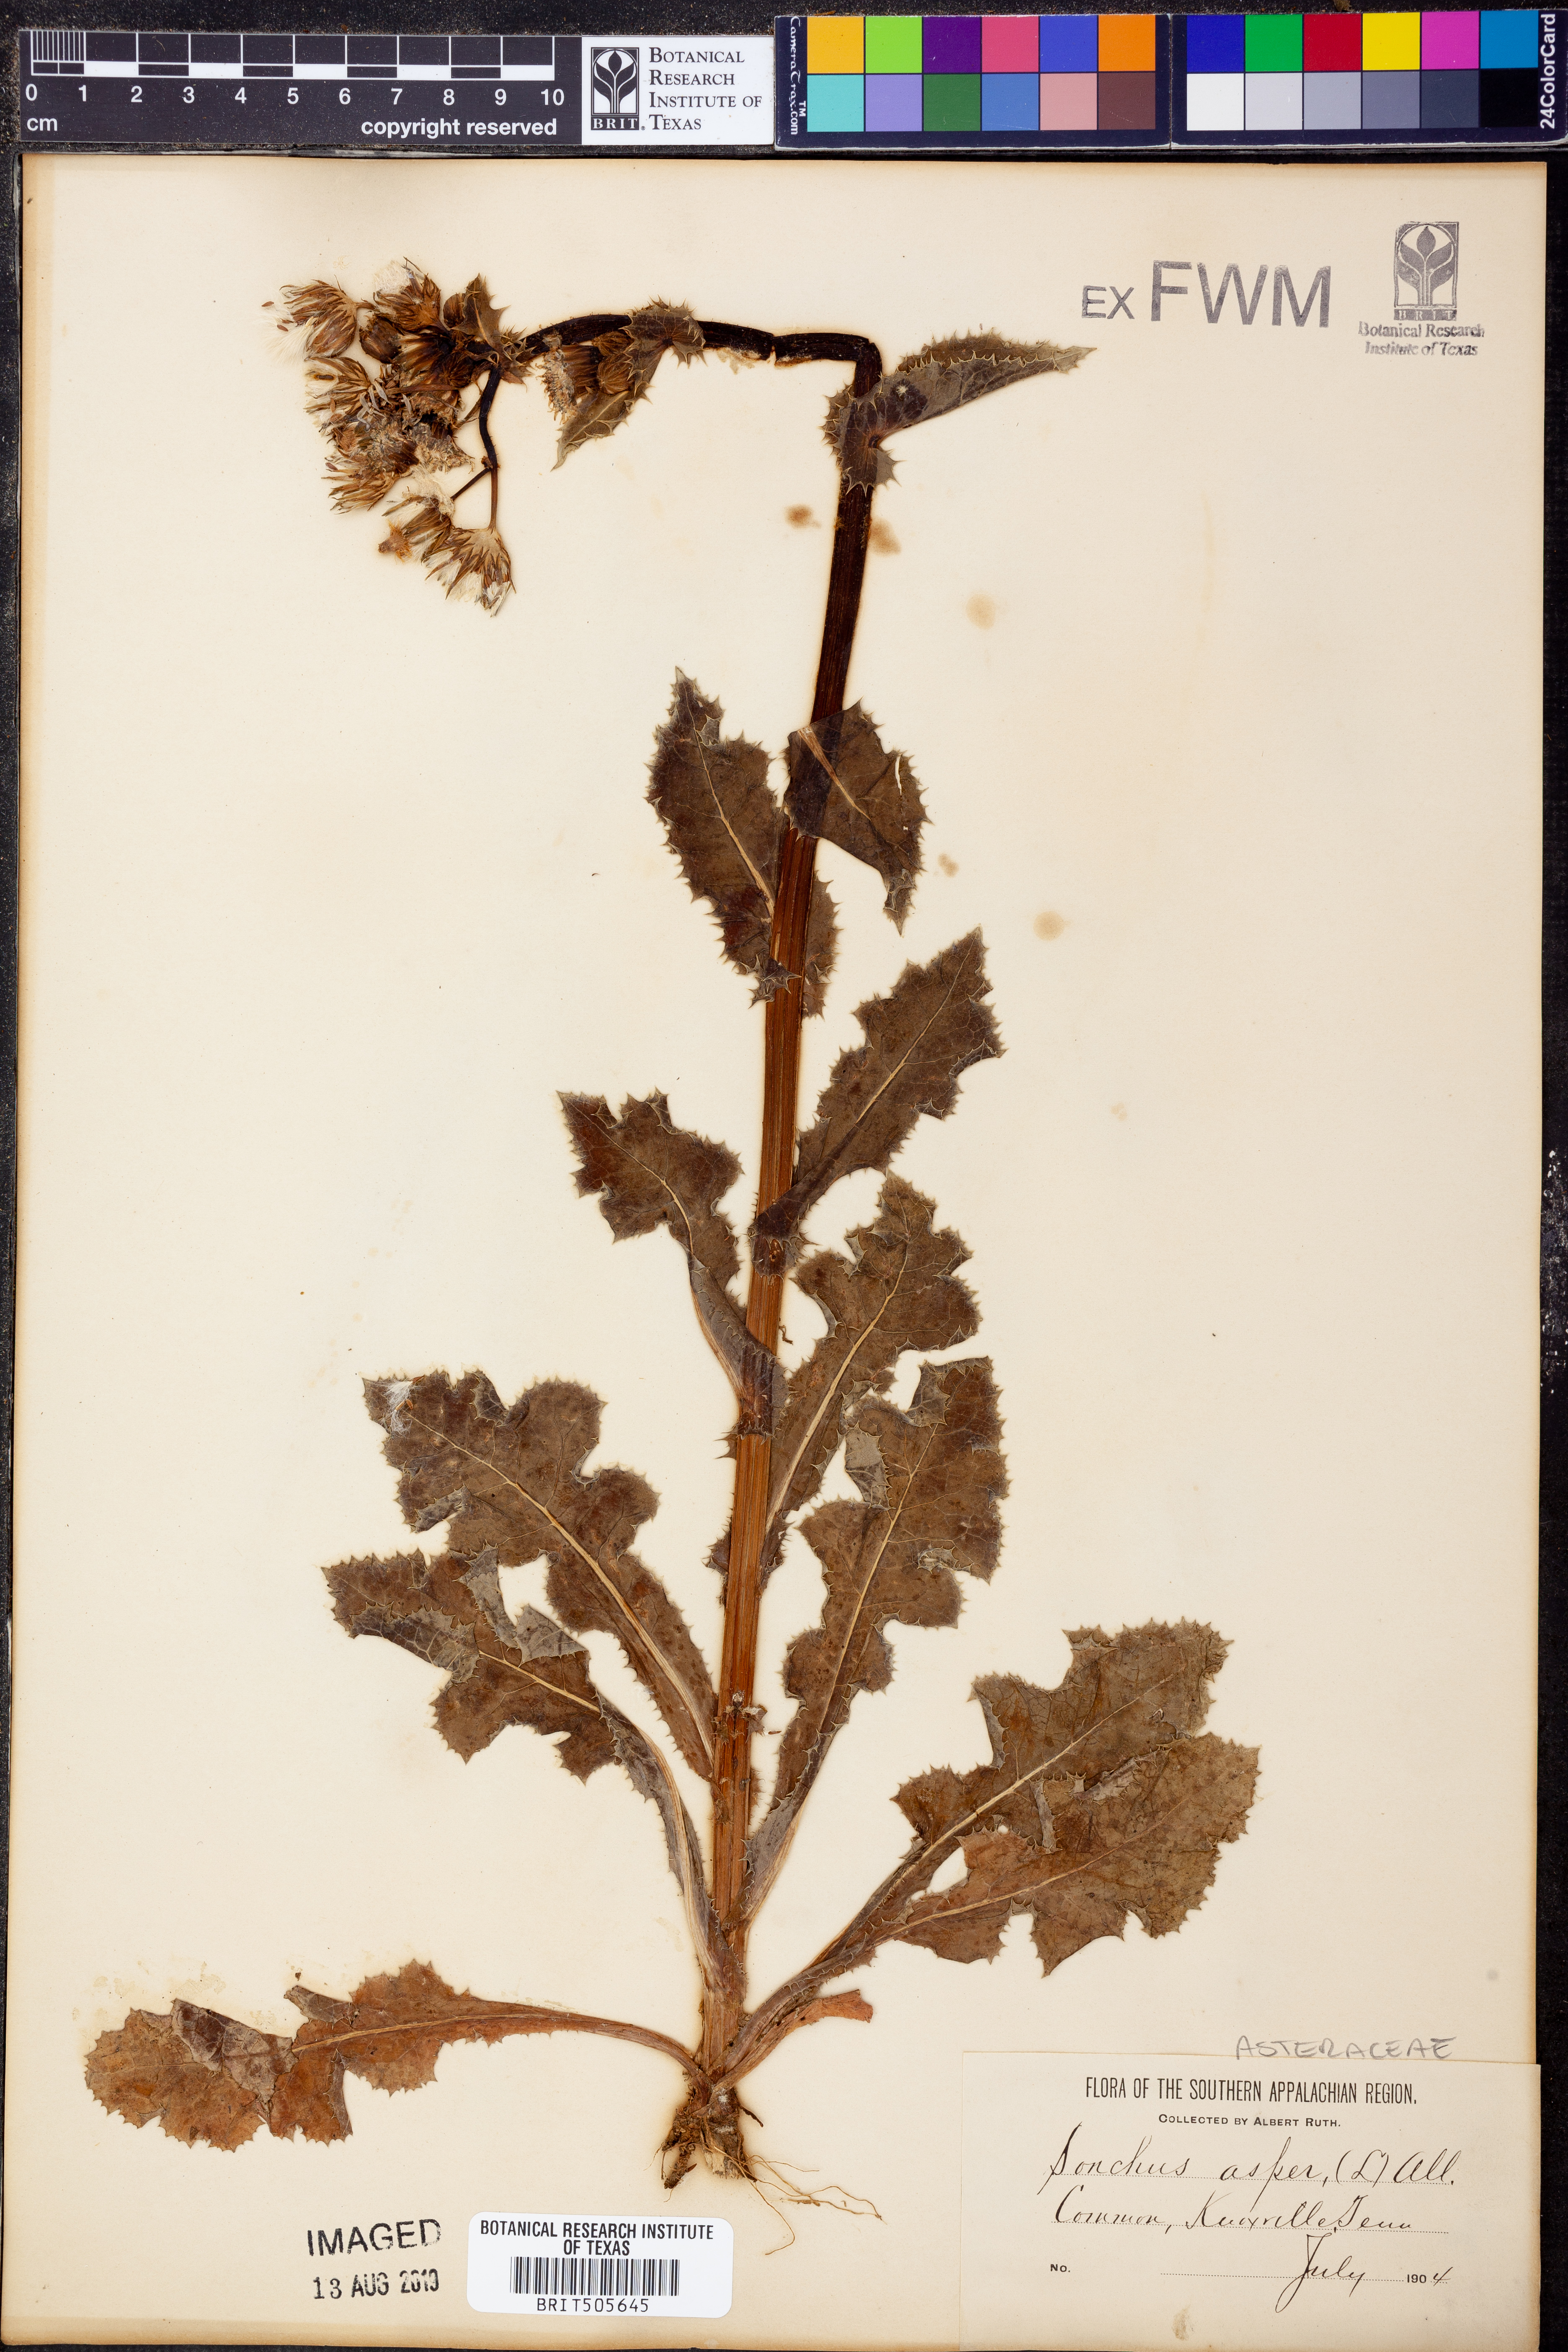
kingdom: Plantae
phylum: Tracheophyta
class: Magnoliopsida
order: Asterales
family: Asteraceae
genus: Sonchus
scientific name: Sonchus asper
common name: Prickly sow-thistle
